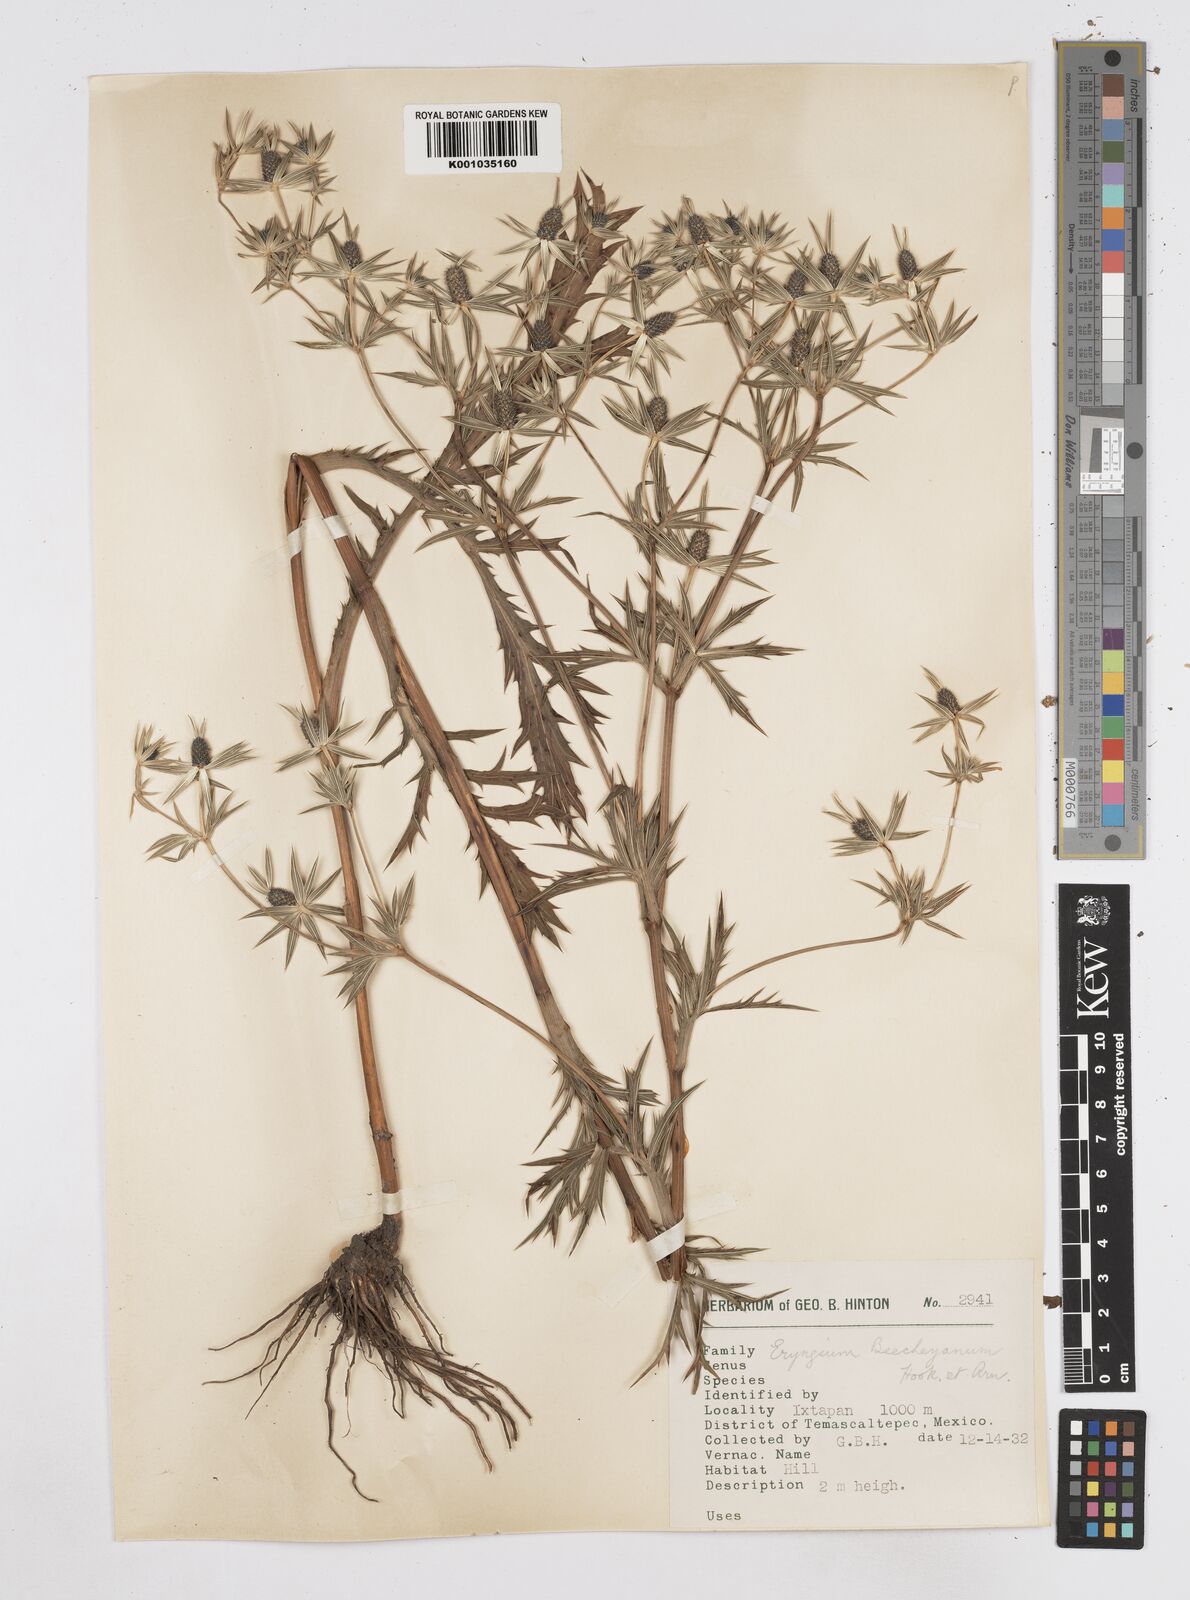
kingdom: Plantae
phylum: Tracheophyta
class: Magnoliopsida
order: Apiales
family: Apiaceae
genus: Eryngium
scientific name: Eryngium beecheyanum
